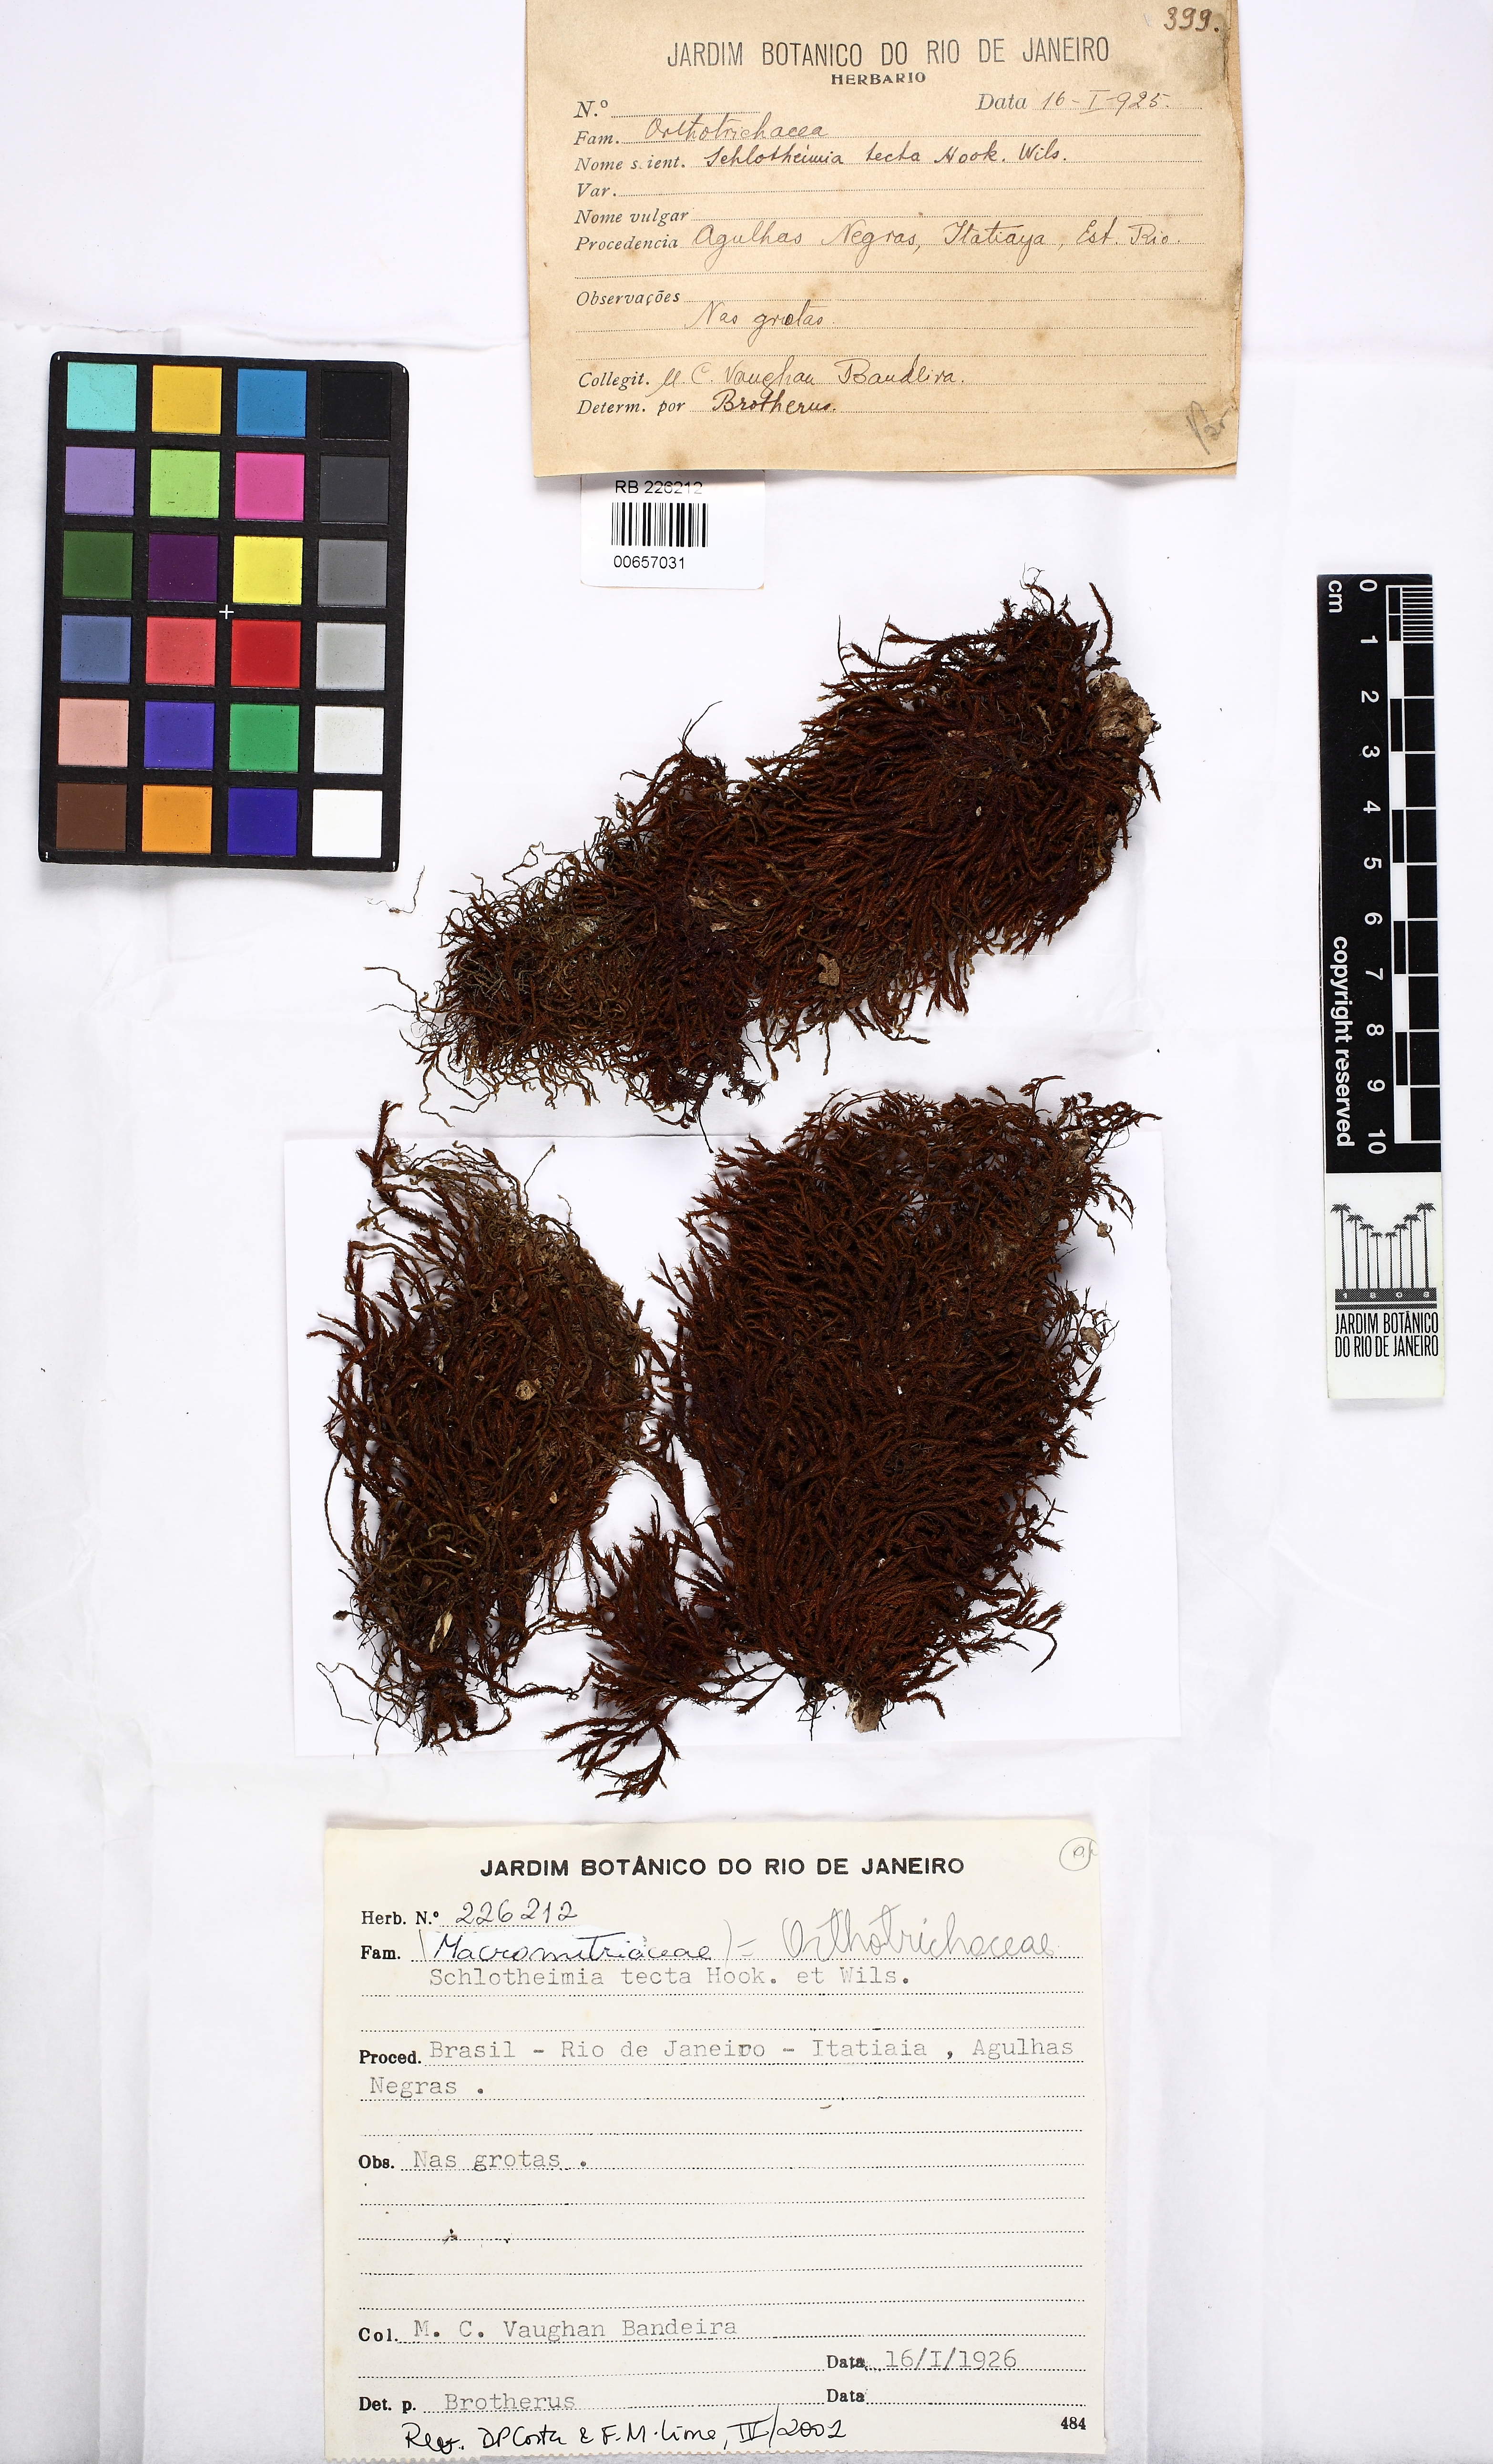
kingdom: Plantae
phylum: Bryophyta
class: Bryopsida
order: Orthotrichales
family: Orthotrichaceae
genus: Schlotheimia
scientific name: Schlotheimia tecta
